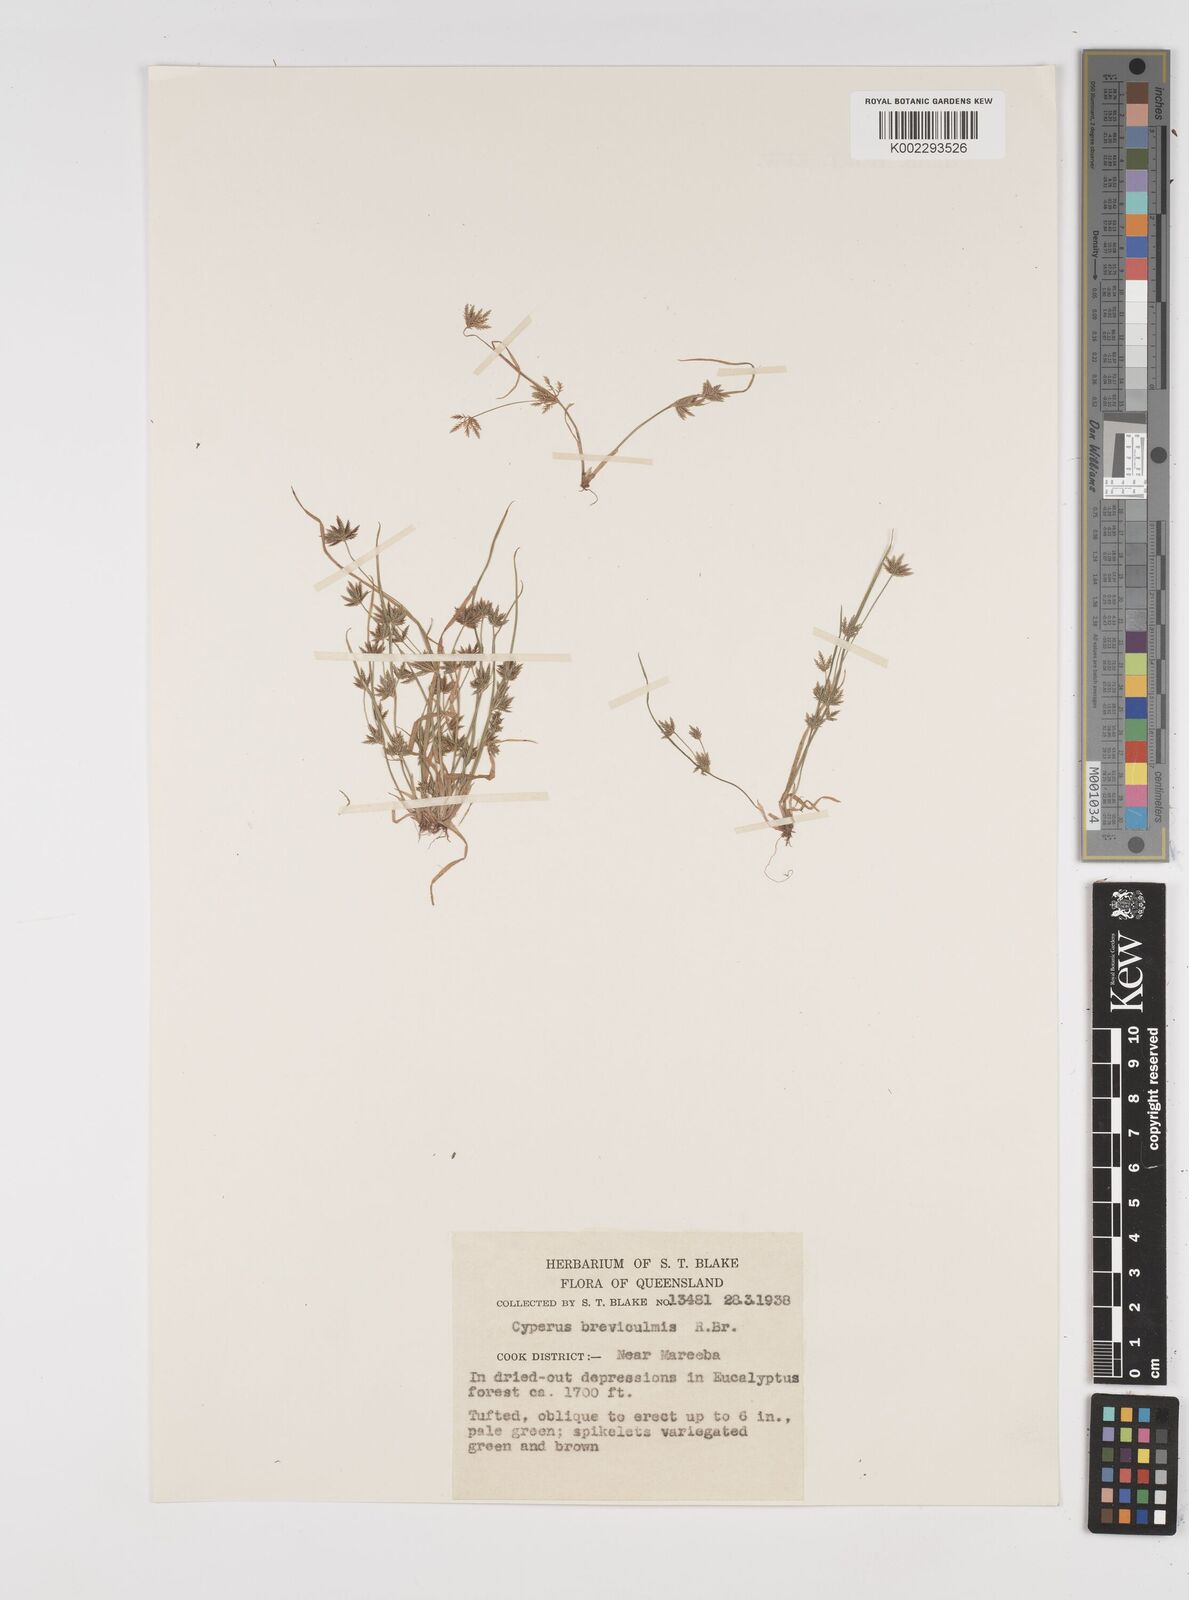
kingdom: Plantae
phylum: Tracheophyta
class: Liliopsida
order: Poales
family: Cyperaceae
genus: Cyperus
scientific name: Cyperus breviculmis
